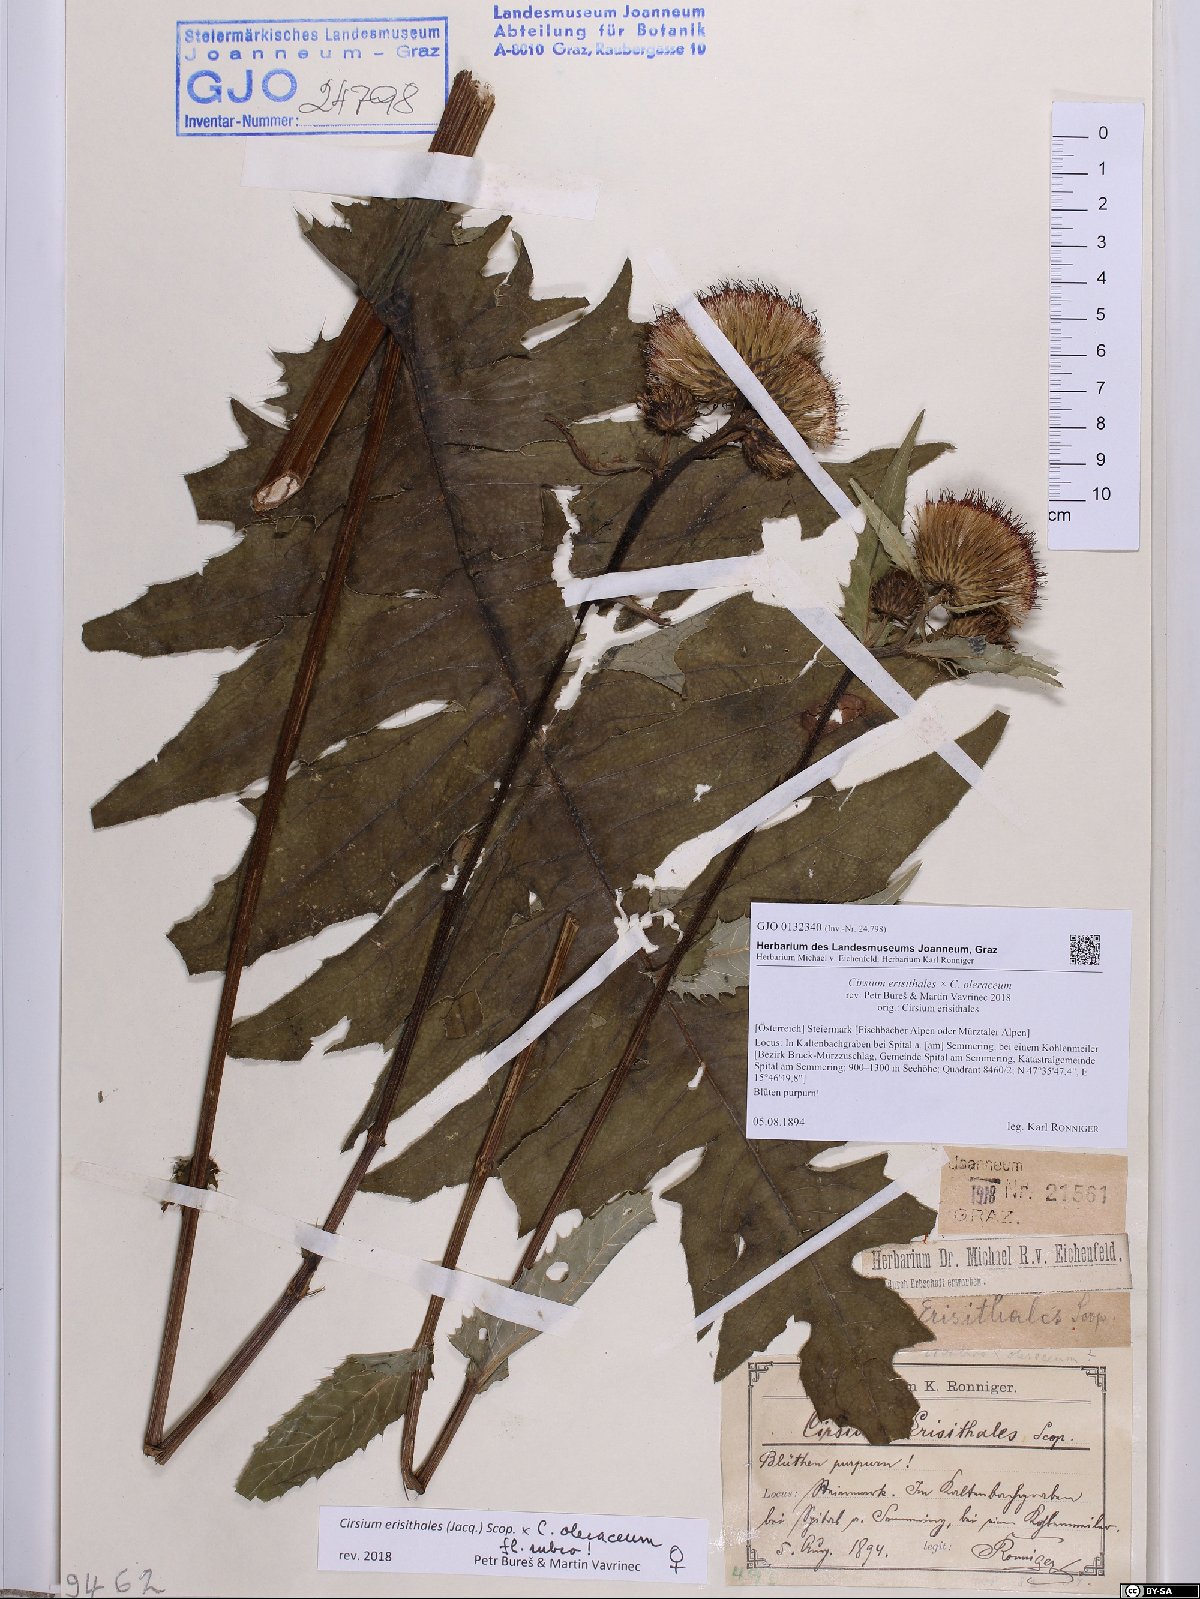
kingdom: Plantae
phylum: Tracheophyta
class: Magnoliopsida
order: Asterales
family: Asteraceae
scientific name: Asteraceae
